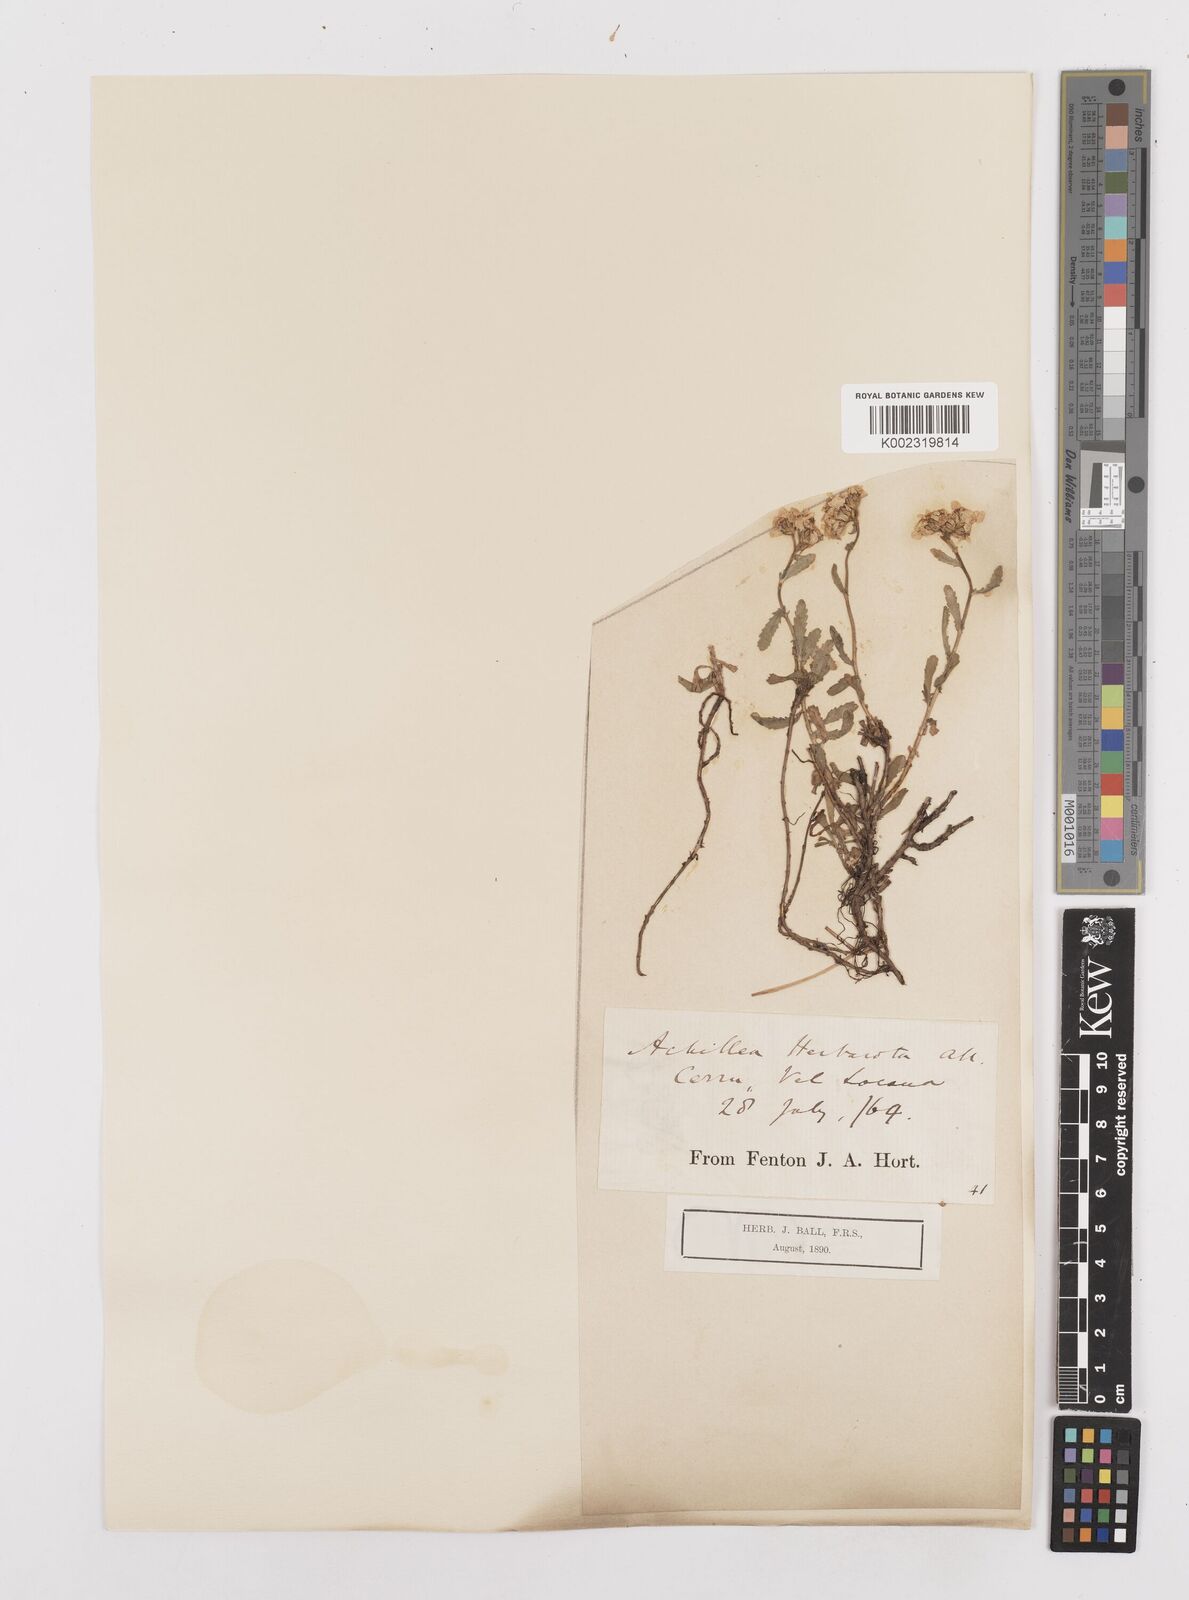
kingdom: Plantae
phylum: Tracheophyta
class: Magnoliopsida
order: Asterales
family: Asteraceae
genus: Achillea
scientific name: Achillea erba-rotta
